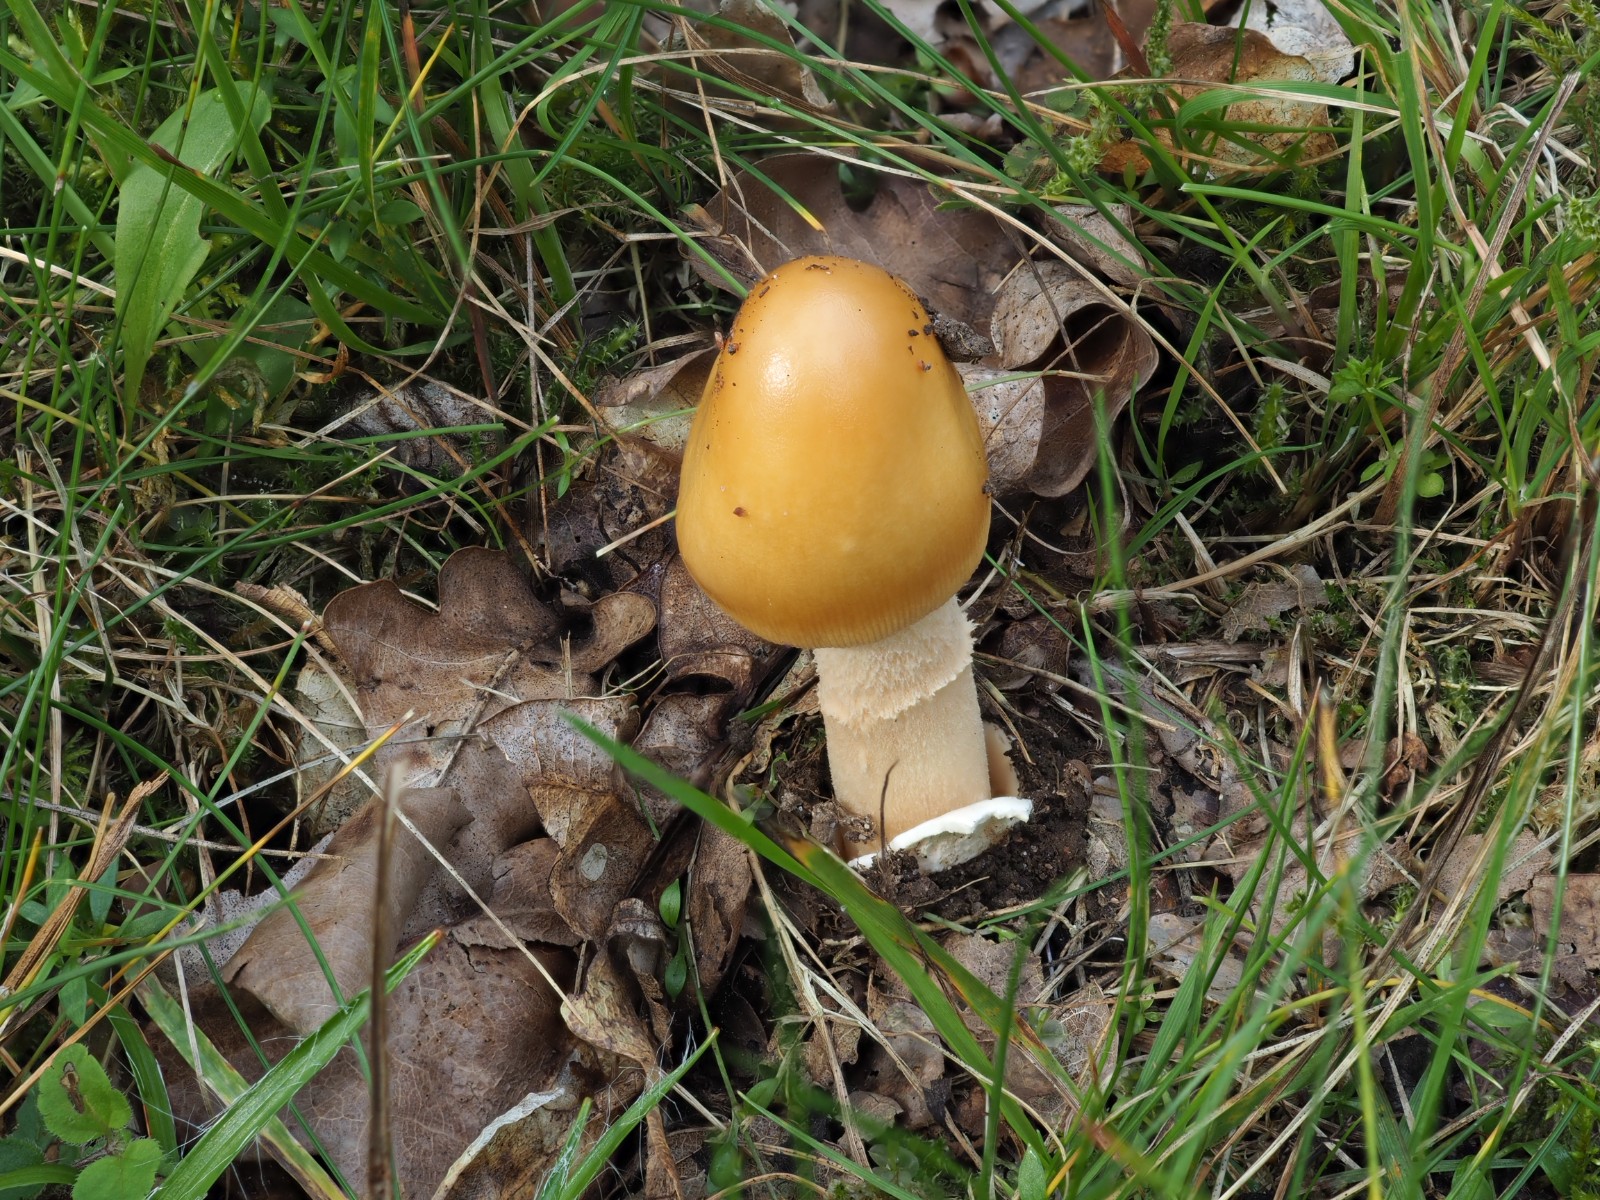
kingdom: Fungi
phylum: Basidiomycota
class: Agaricomycetes
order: Agaricales
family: Amanitaceae
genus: Amanita
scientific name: Amanita crocea
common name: gylden kam-fluesvamp
